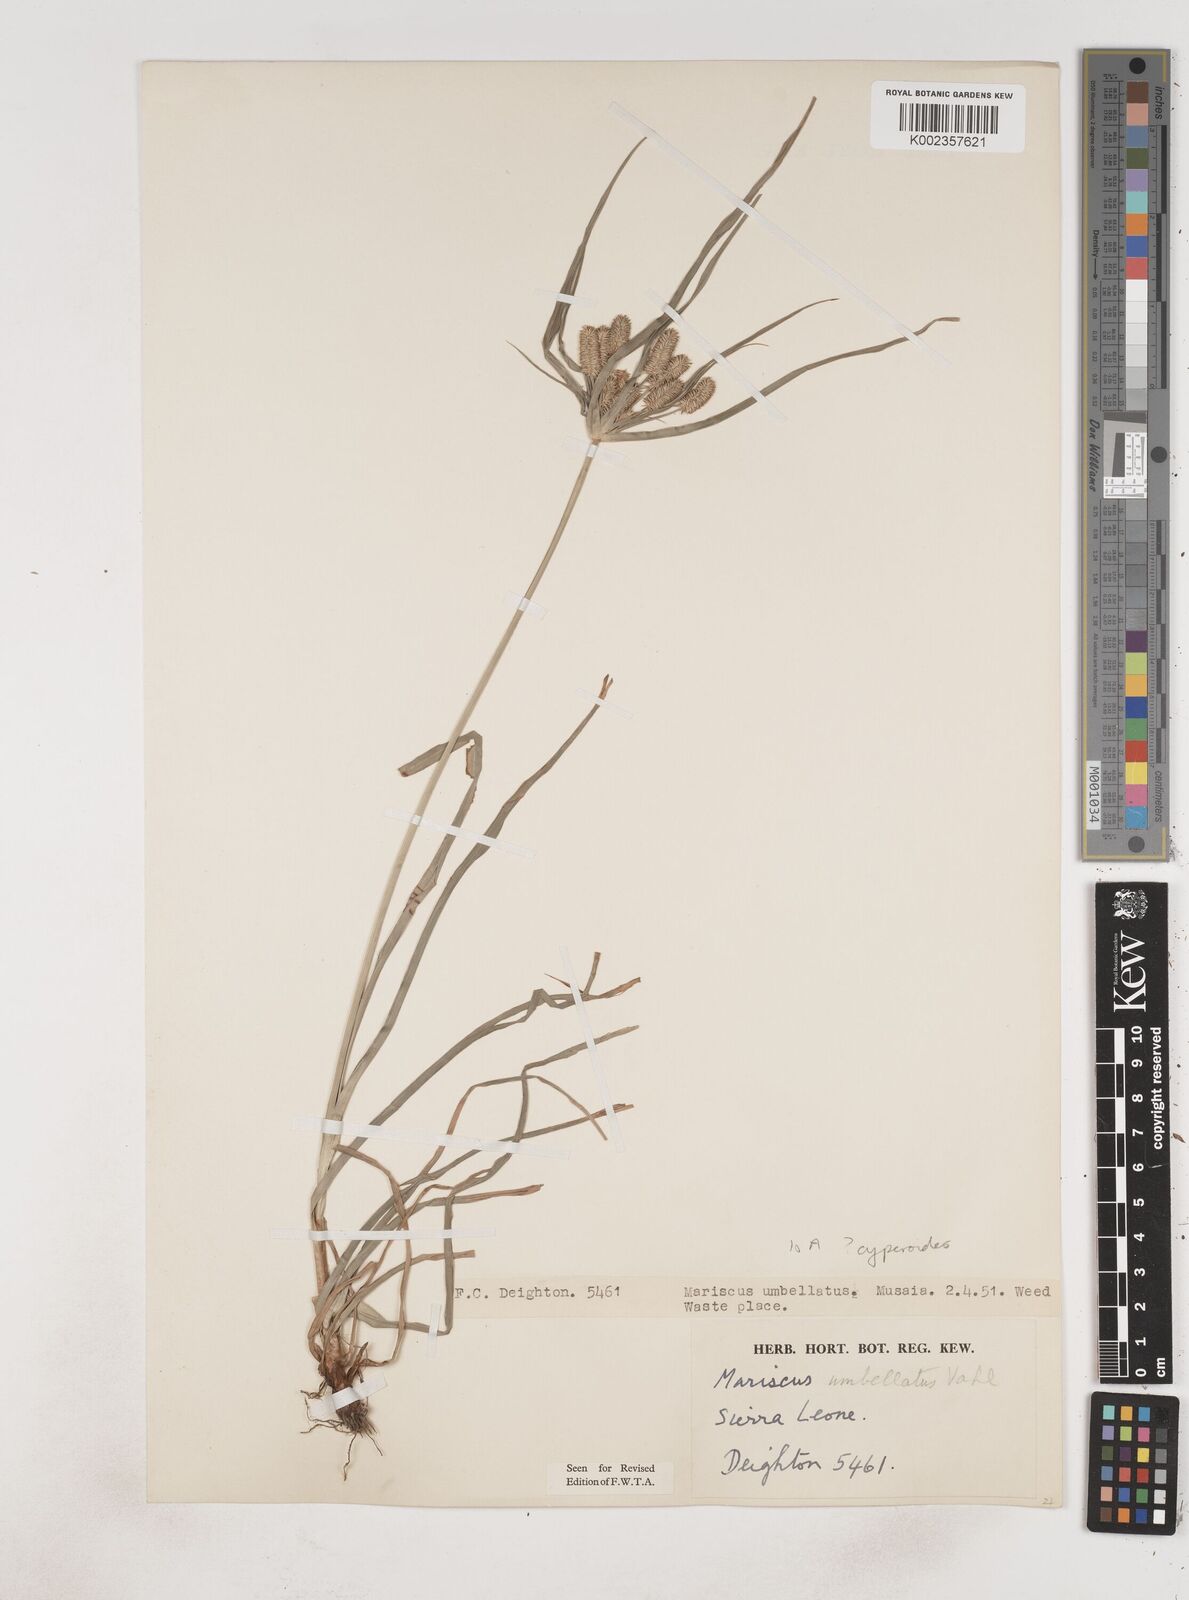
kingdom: Plantae
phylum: Tracheophyta
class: Liliopsida
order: Poales
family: Cyperaceae
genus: Cyperus
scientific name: Cyperus cyperoides
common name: Pacific island flat sedge
